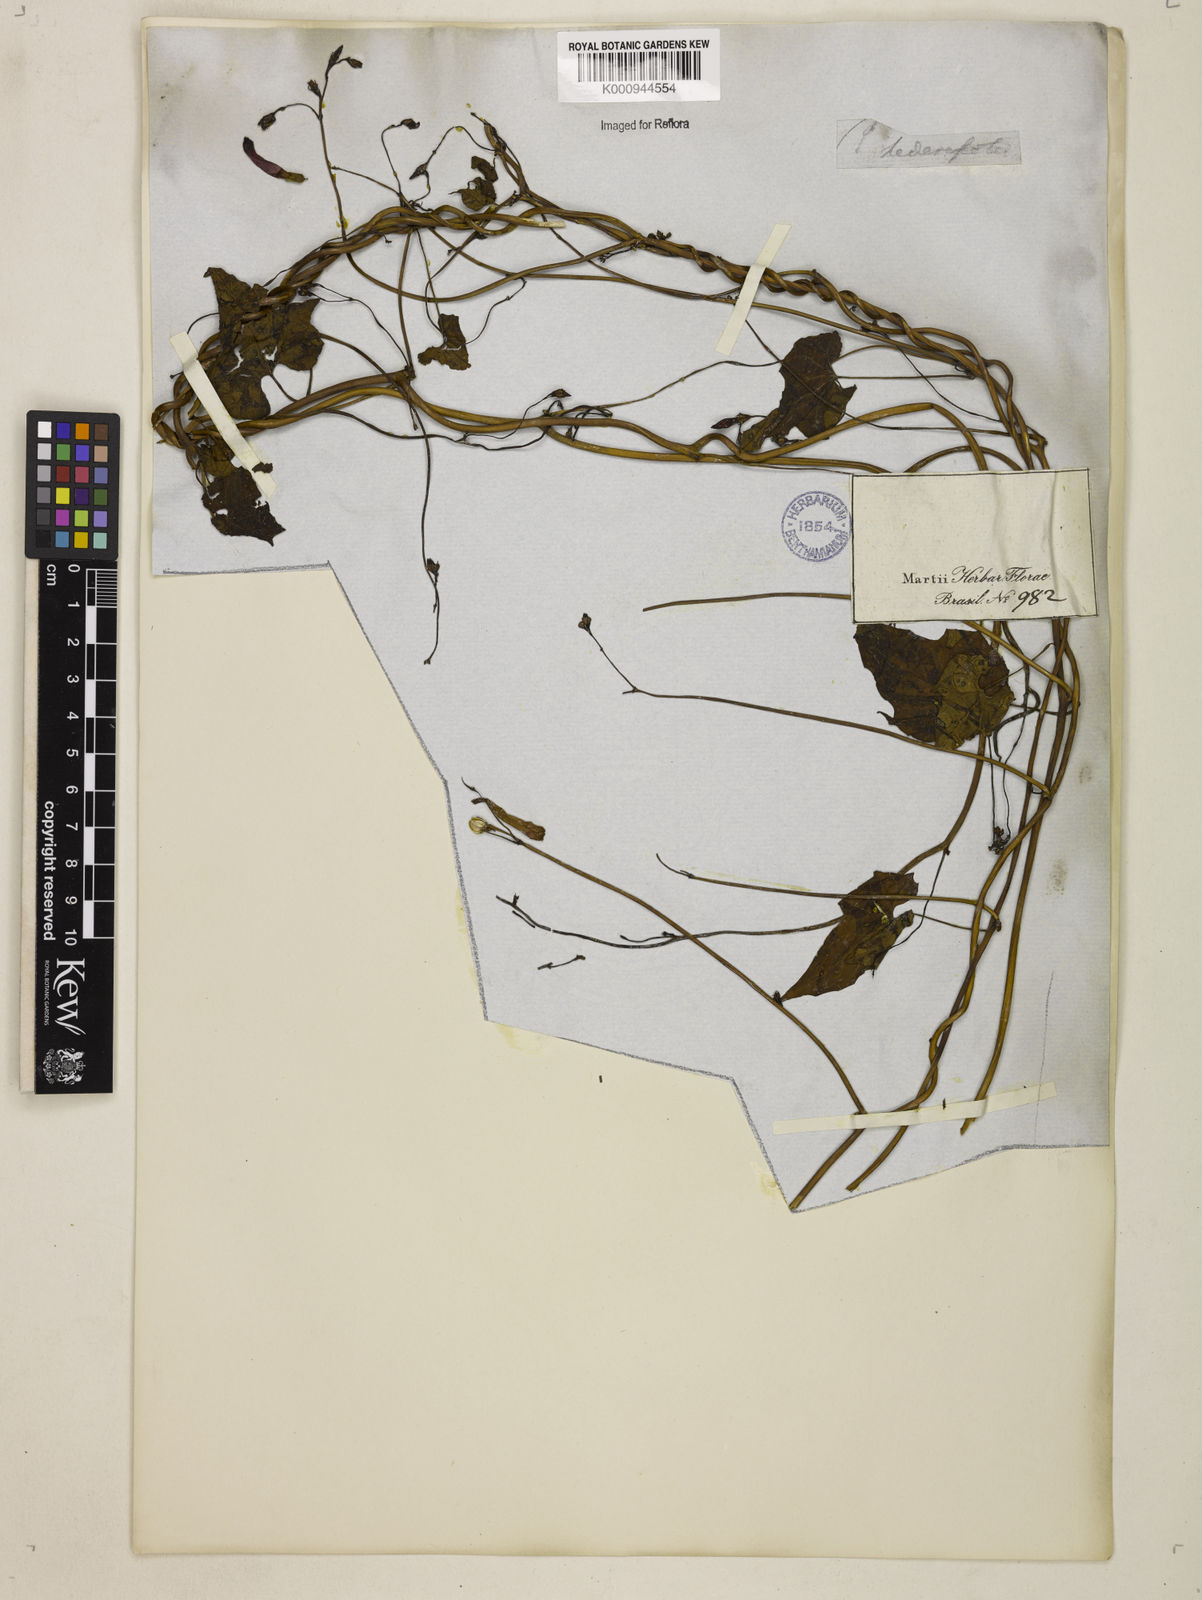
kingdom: Plantae
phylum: Tracheophyta
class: Magnoliopsida
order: Solanales
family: Convolvulaceae
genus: Ipomoea
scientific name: Ipomoea hederifolia
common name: Ivy-leaf morning-glory
